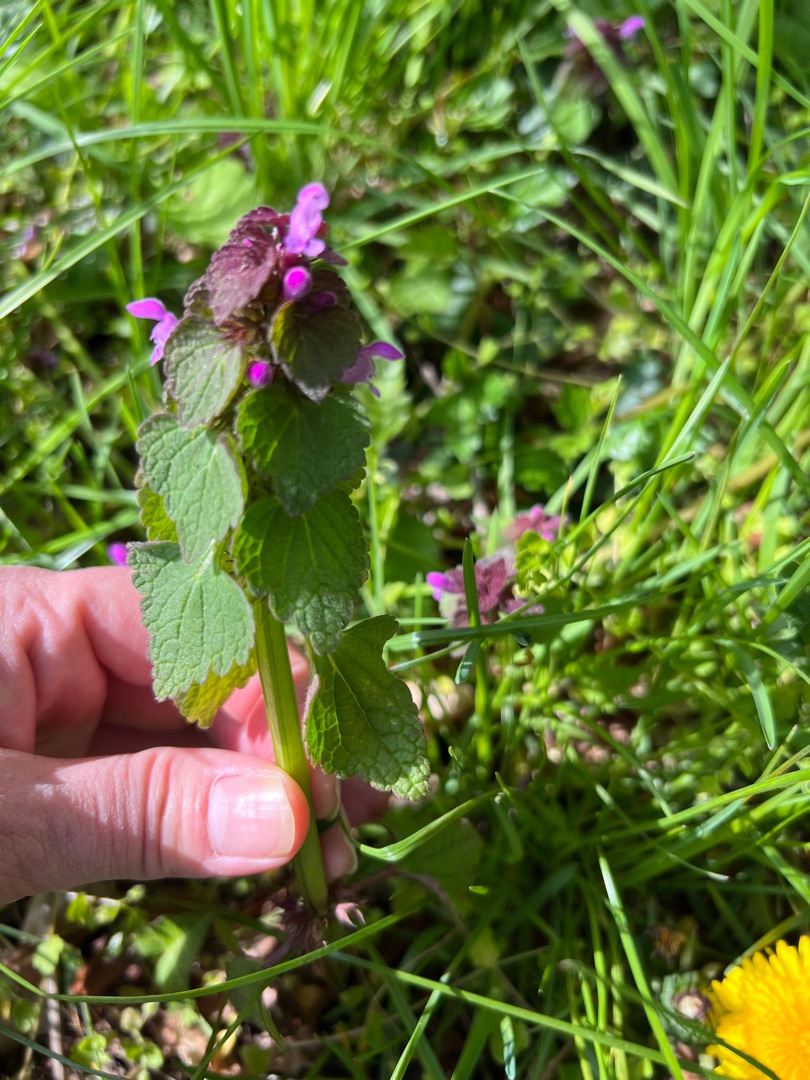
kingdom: Plantae
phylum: Tracheophyta
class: Magnoliopsida
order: Lamiales
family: Lamiaceae
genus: Lamium
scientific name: Lamium purpureum
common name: Rød tvetand
